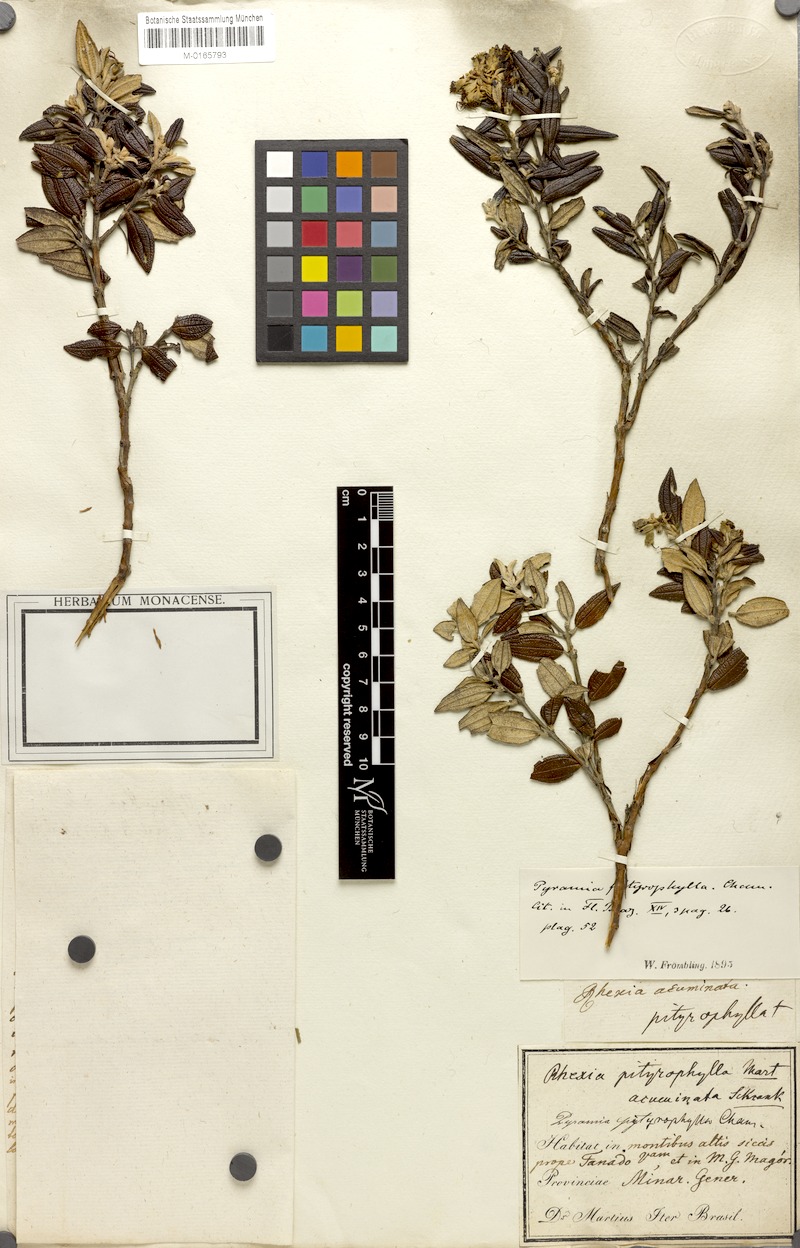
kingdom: Plantae
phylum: Tracheophyta
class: Magnoliopsida
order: Myrtales
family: Melastomataceae
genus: Cambessedesia
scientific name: Cambessedesia pityrophylla
